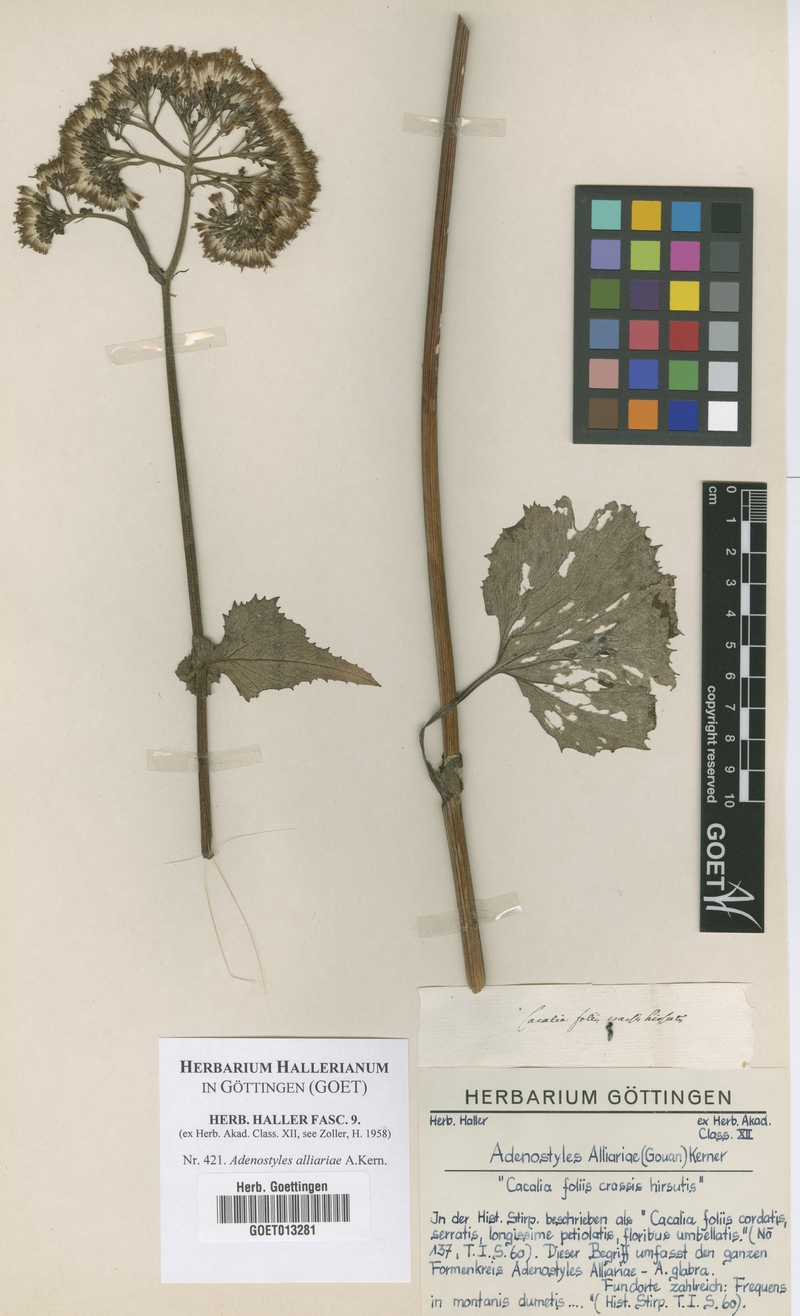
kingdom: Plantae
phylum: Tracheophyta
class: Magnoliopsida
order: Asterales
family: Asteraceae
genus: Adenostyles
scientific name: Adenostyles alliariae
